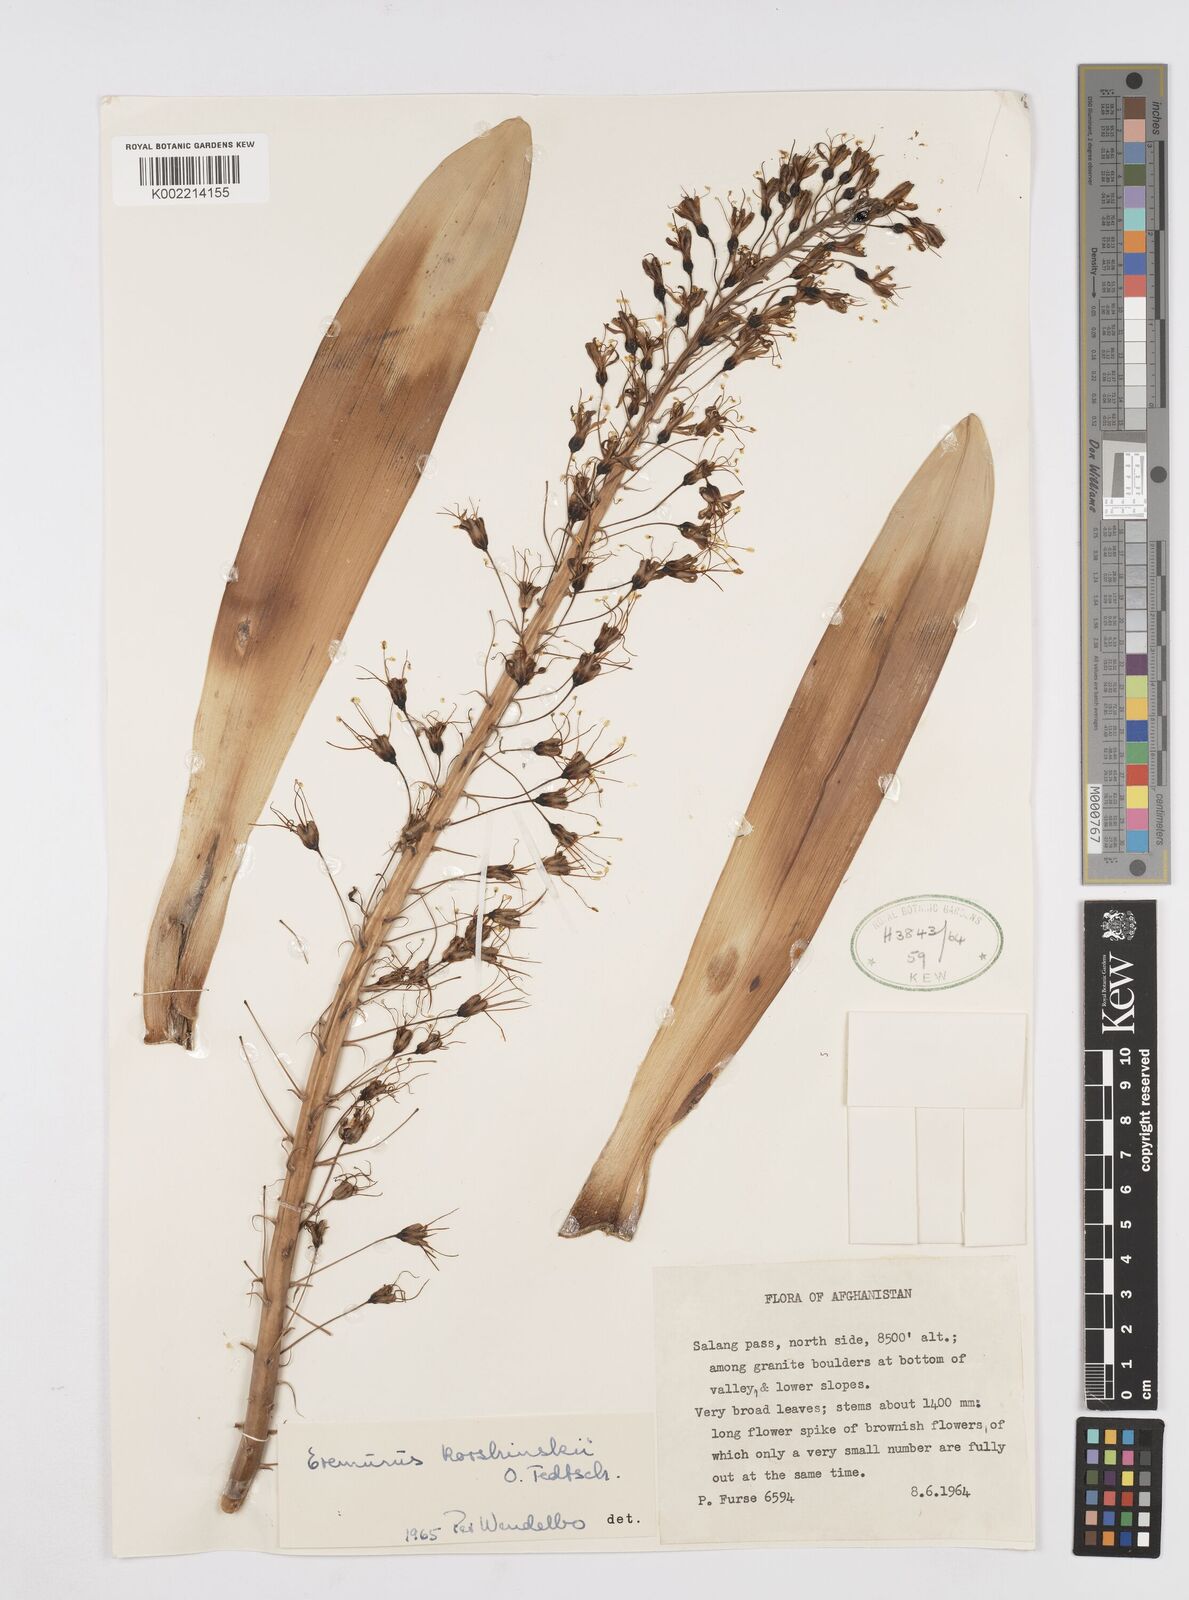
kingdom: Plantae
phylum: Tracheophyta
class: Liliopsida
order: Asparagales
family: Asphodelaceae
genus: Eremurus
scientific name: Eremurus korshinskyi
